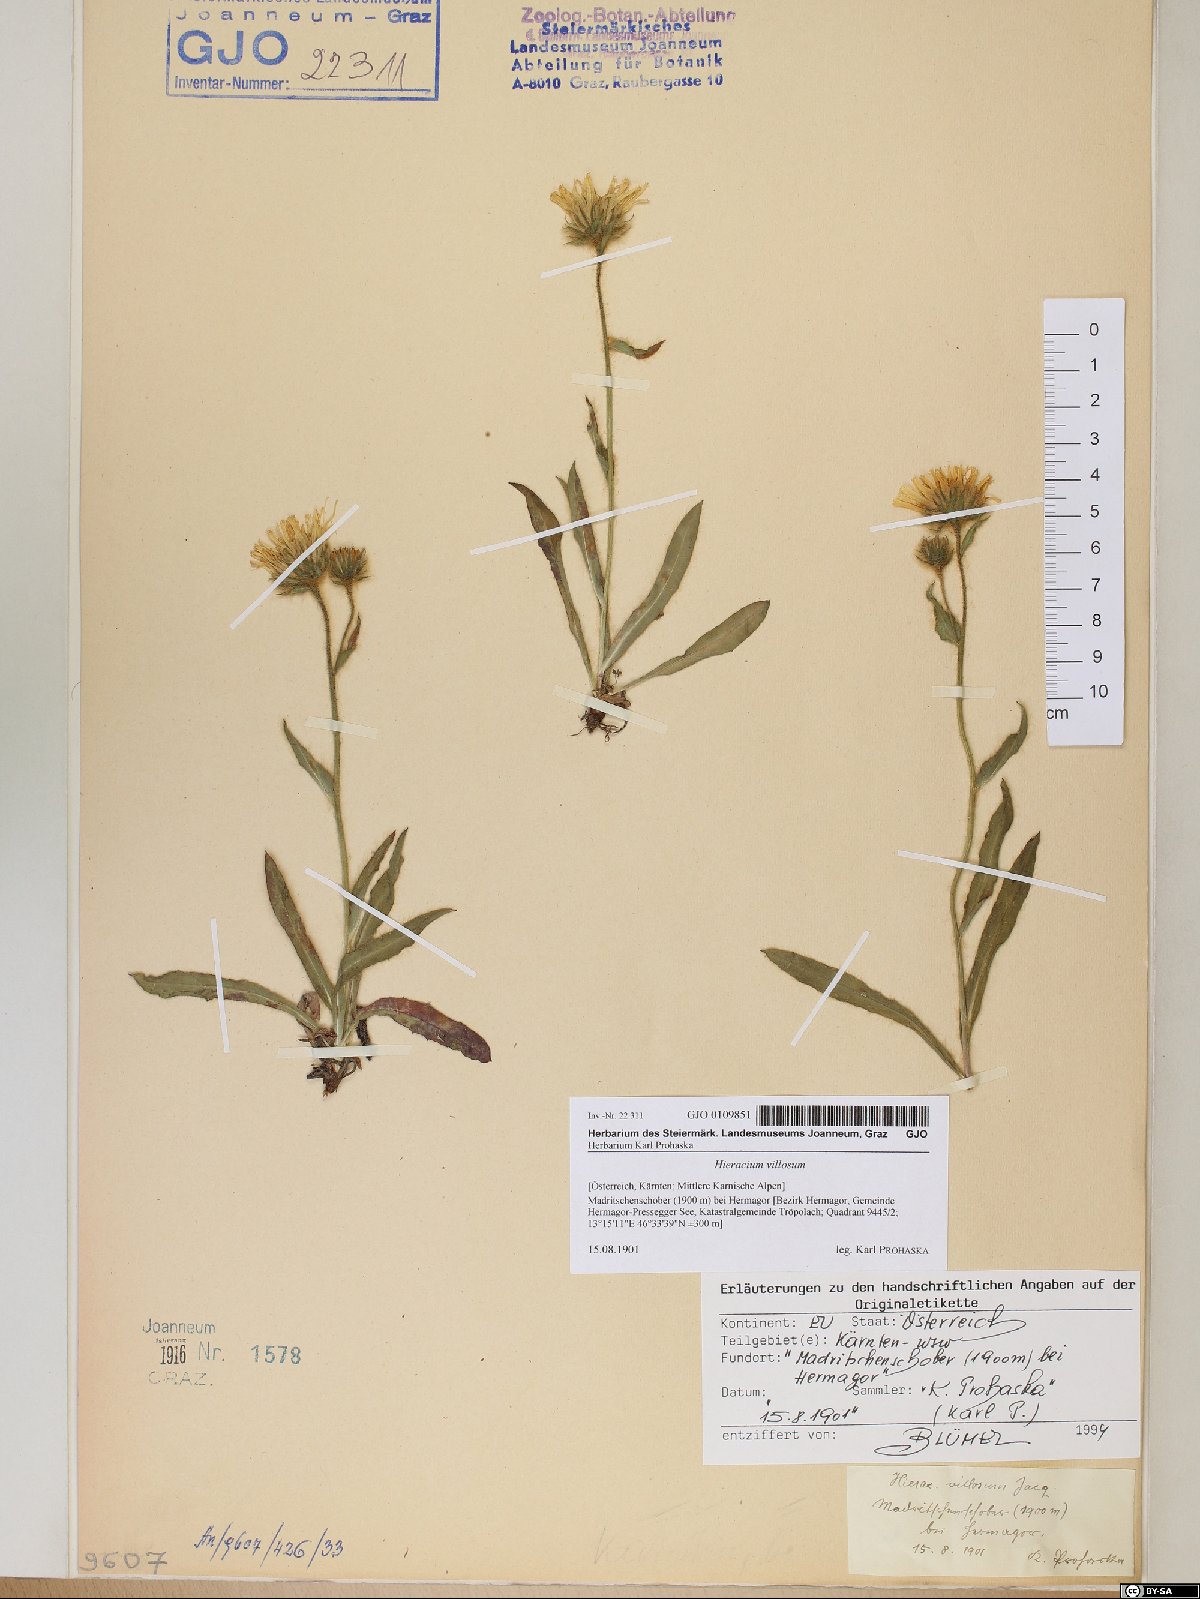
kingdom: Plantae
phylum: Tracheophyta
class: Magnoliopsida
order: Asterales
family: Asteraceae
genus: Hieracium
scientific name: Hieracium villosum
